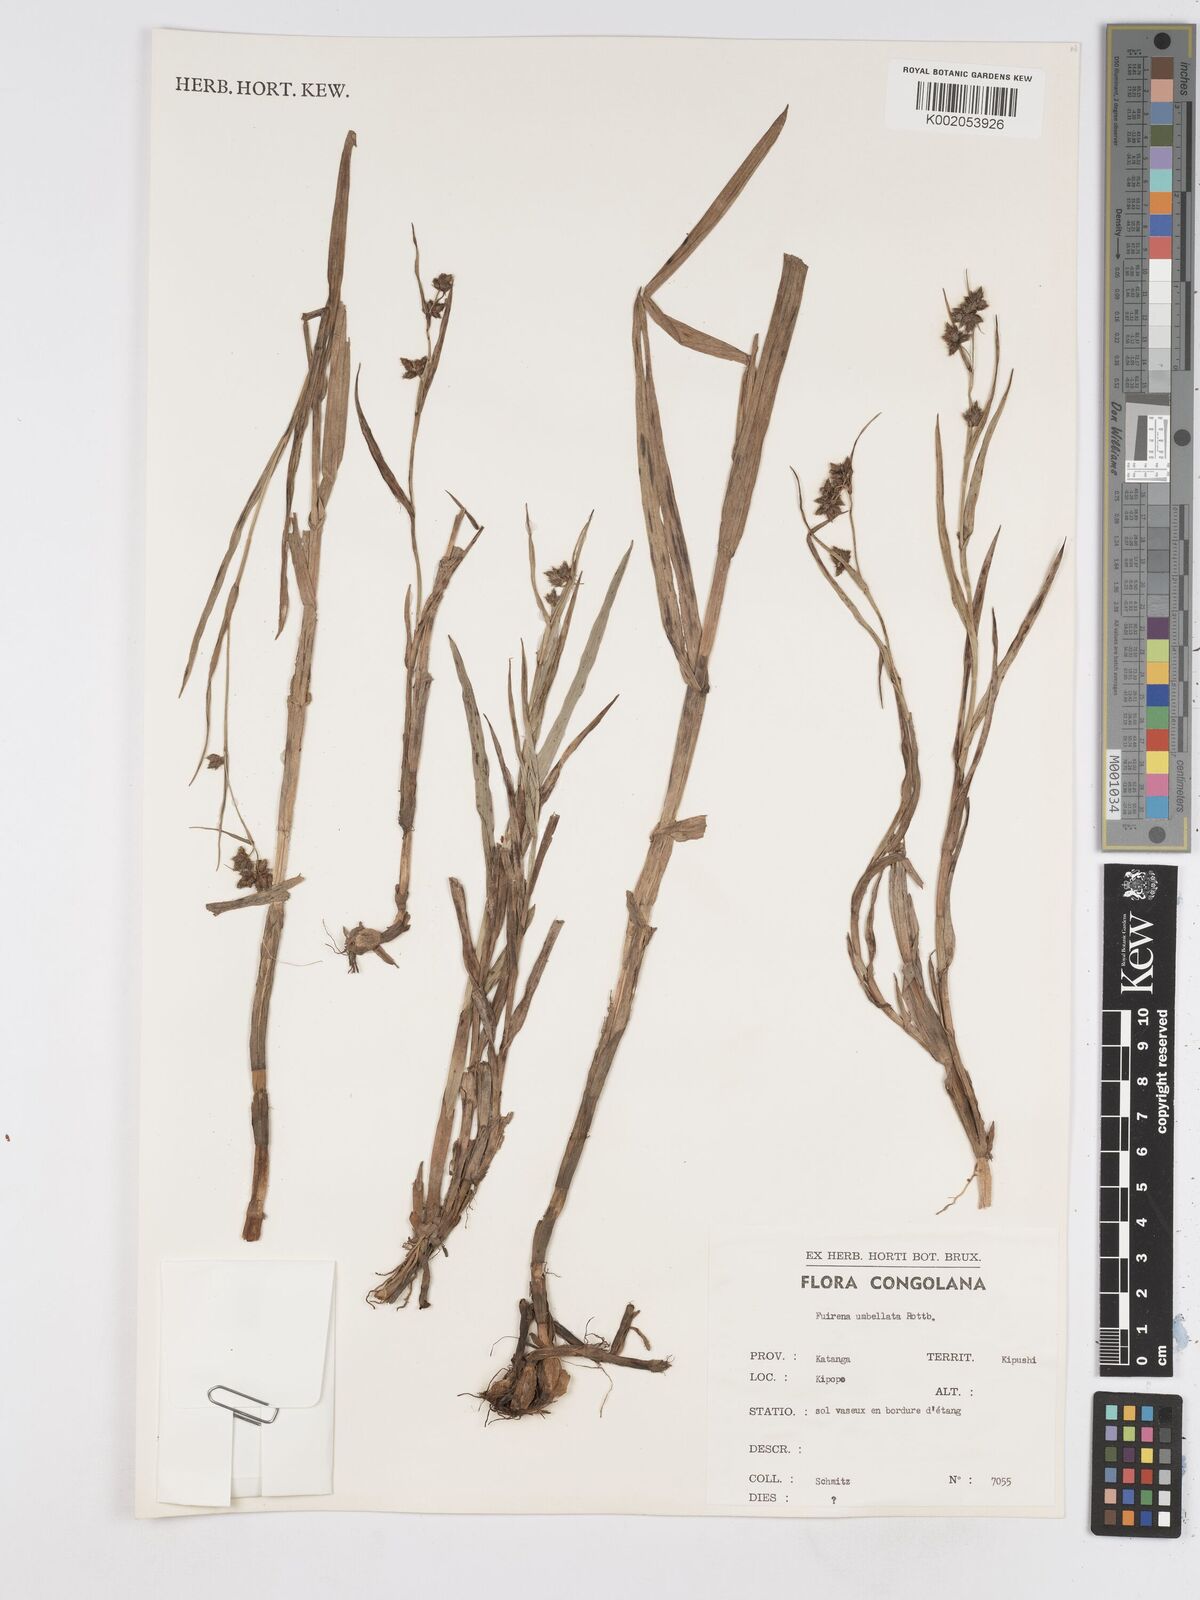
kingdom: Plantae
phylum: Tracheophyta
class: Liliopsida
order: Poales
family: Cyperaceae
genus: Fuirena
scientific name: Fuirena umbellata
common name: Yefen
